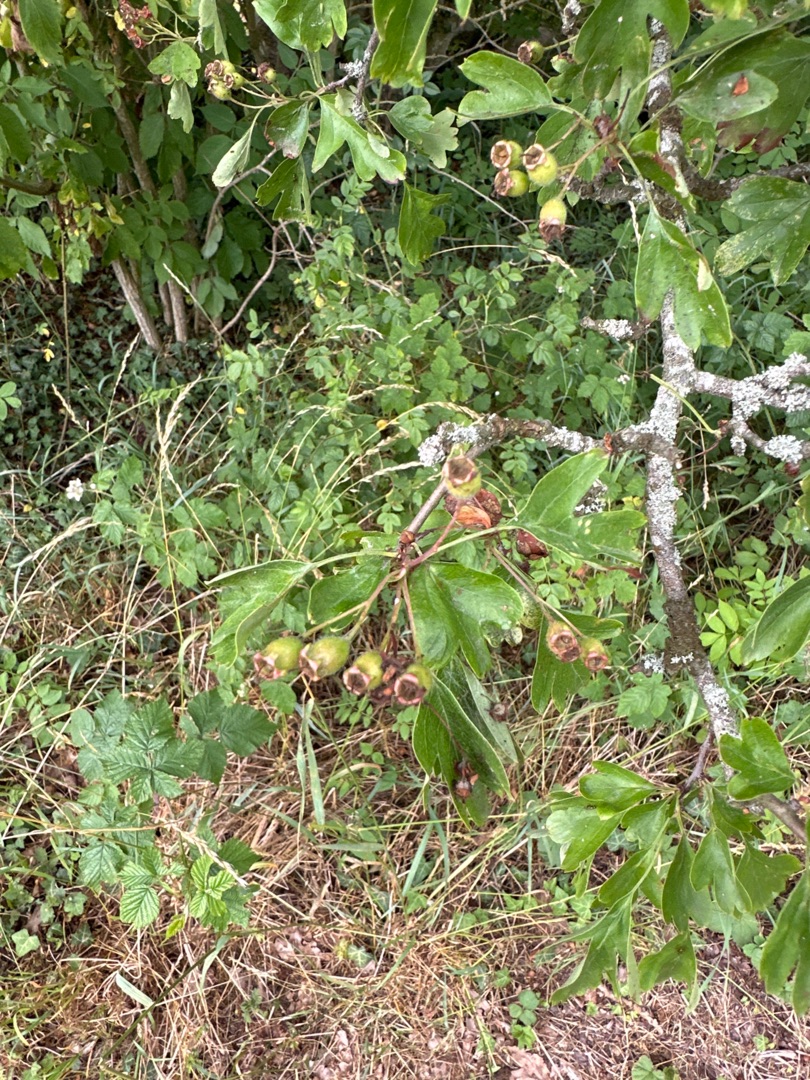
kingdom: Plantae
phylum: Tracheophyta
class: Magnoliopsida
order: Rosales
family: Rosaceae
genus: Crataegus
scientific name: Crataegus media
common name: Almindelig hvidtjørn × engriflet hvidtjørn
